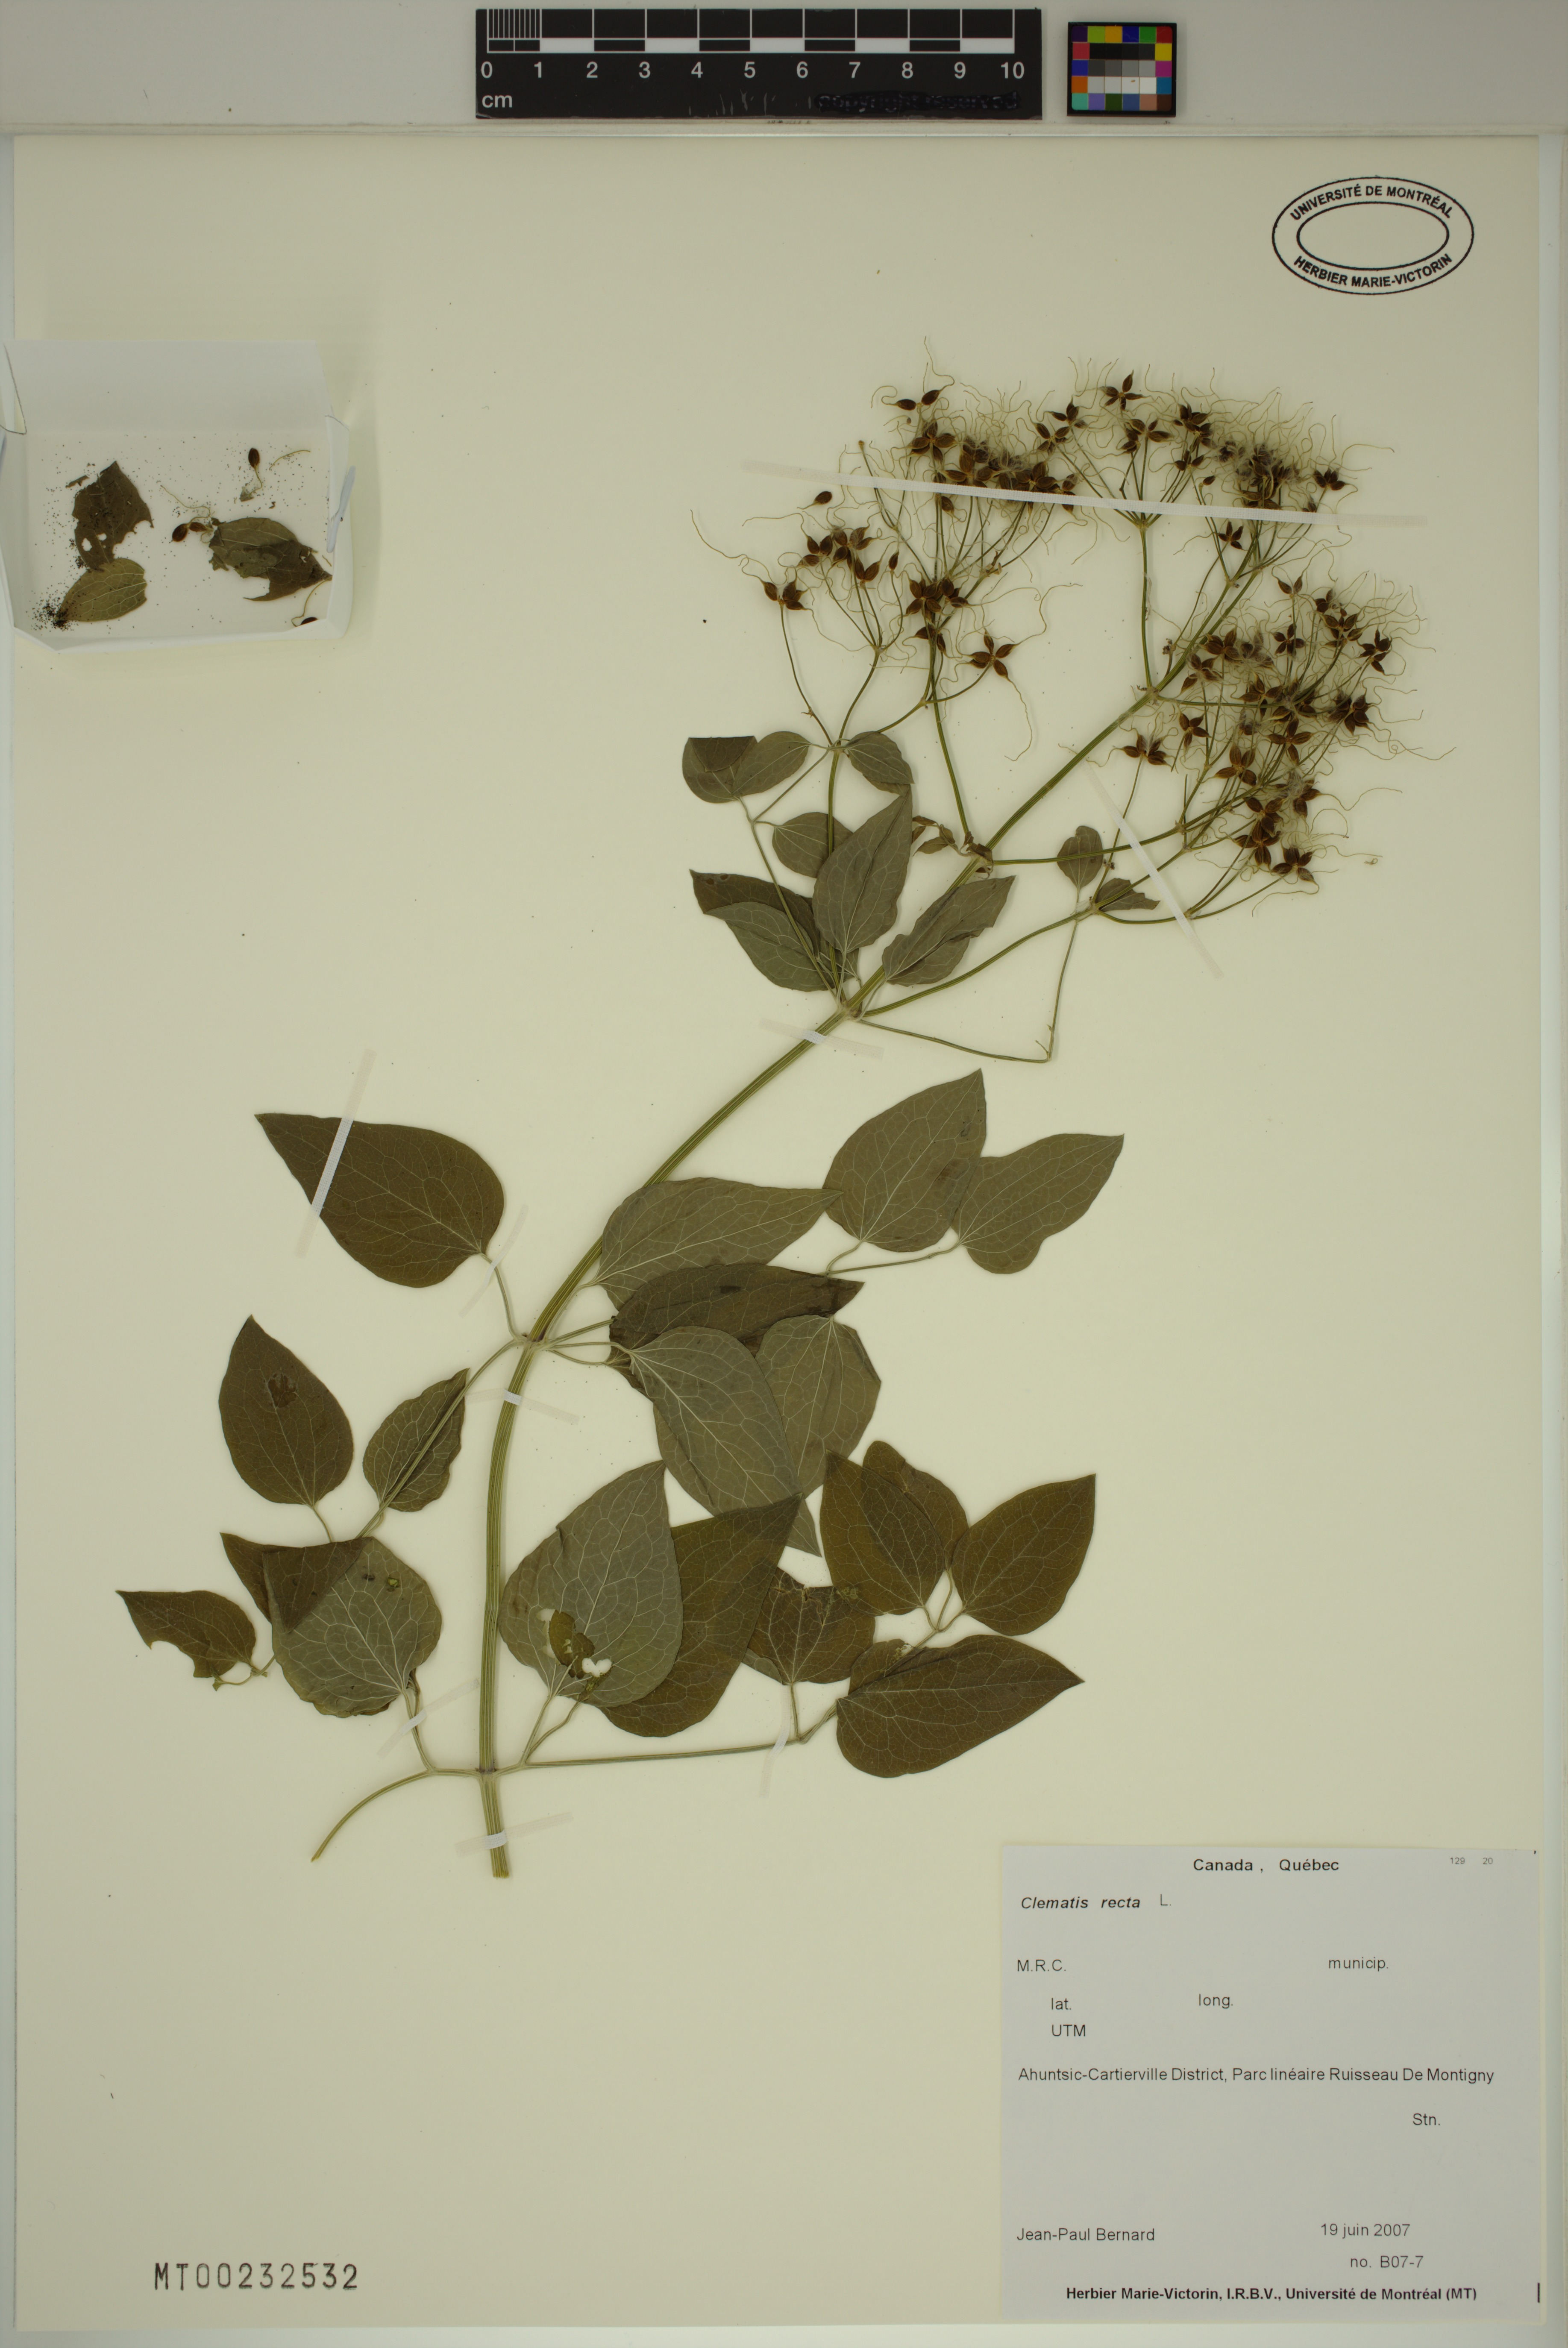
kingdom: Plantae
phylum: Tracheophyta
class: Magnoliopsida
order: Ranunculales
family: Ranunculaceae
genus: Clematis
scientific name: Clematis recta
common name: Ground clematis
